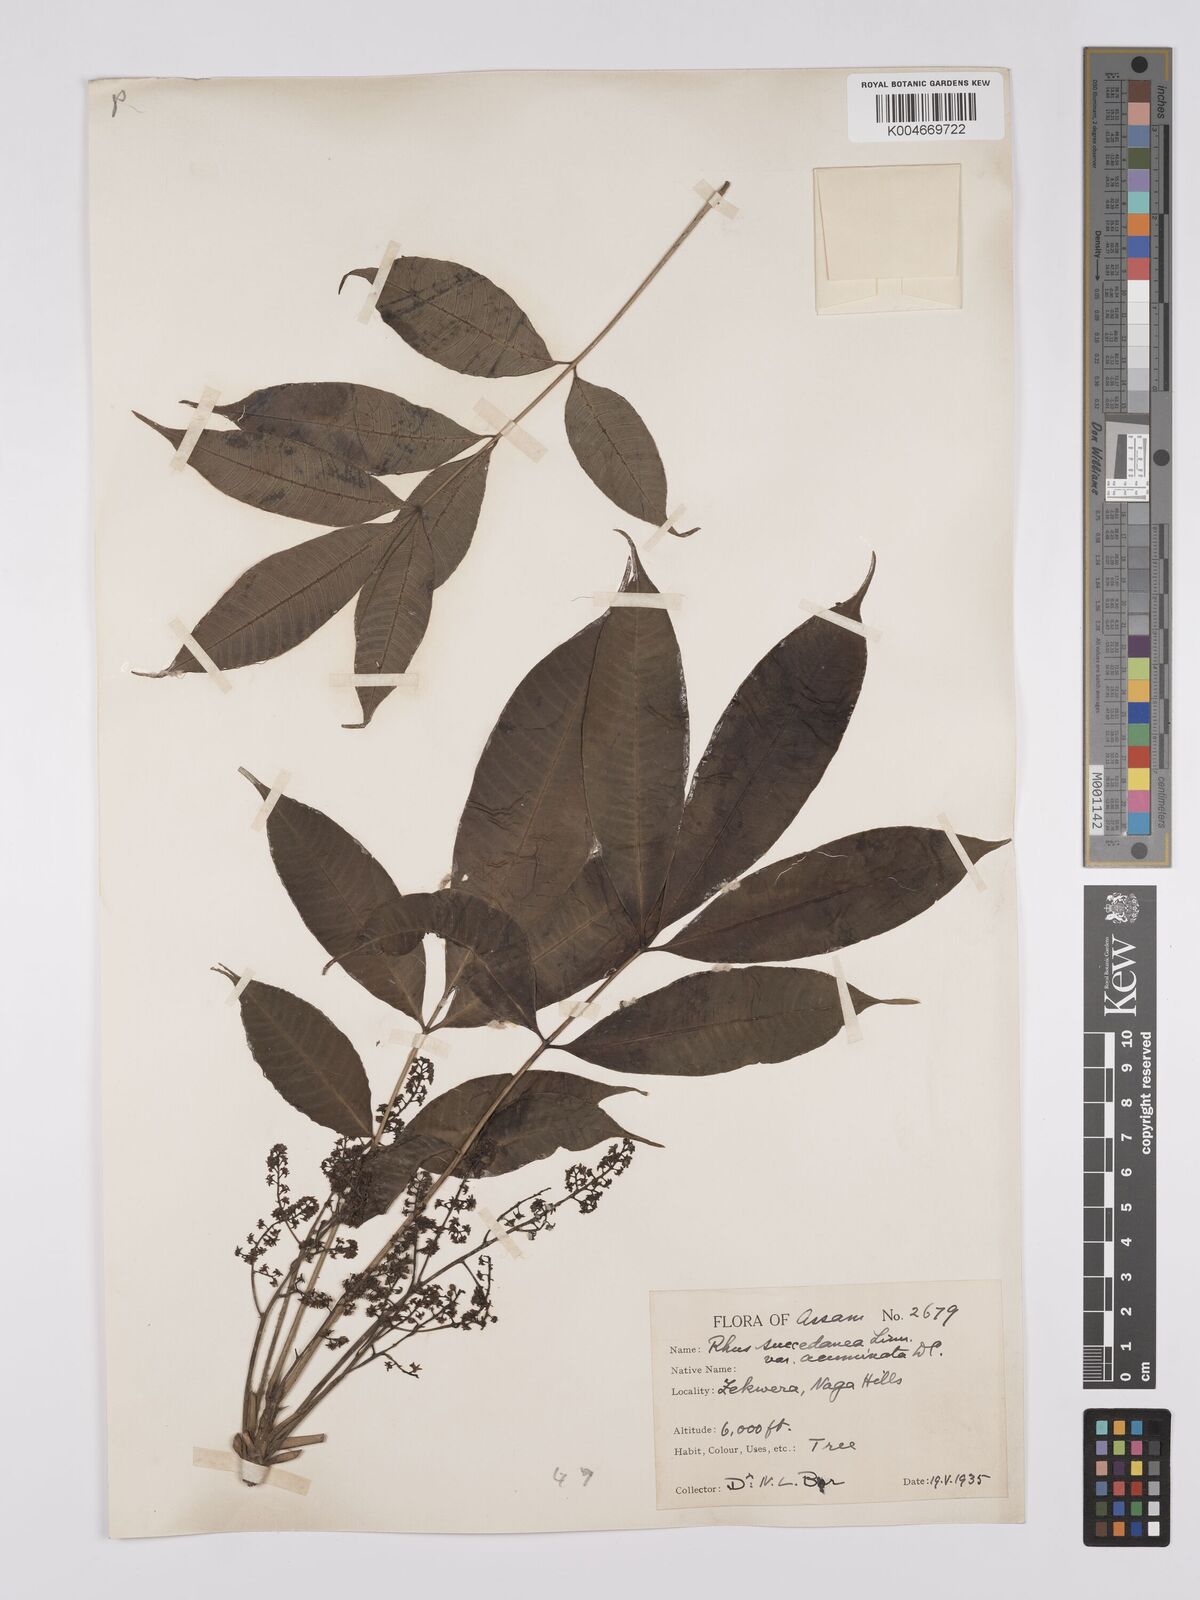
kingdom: Plantae
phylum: Tracheophyta
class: Magnoliopsida
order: Sapindales
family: Anacardiaceae
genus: Toxicodendron
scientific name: Toxicodendron succedaneum
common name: Wax tree
